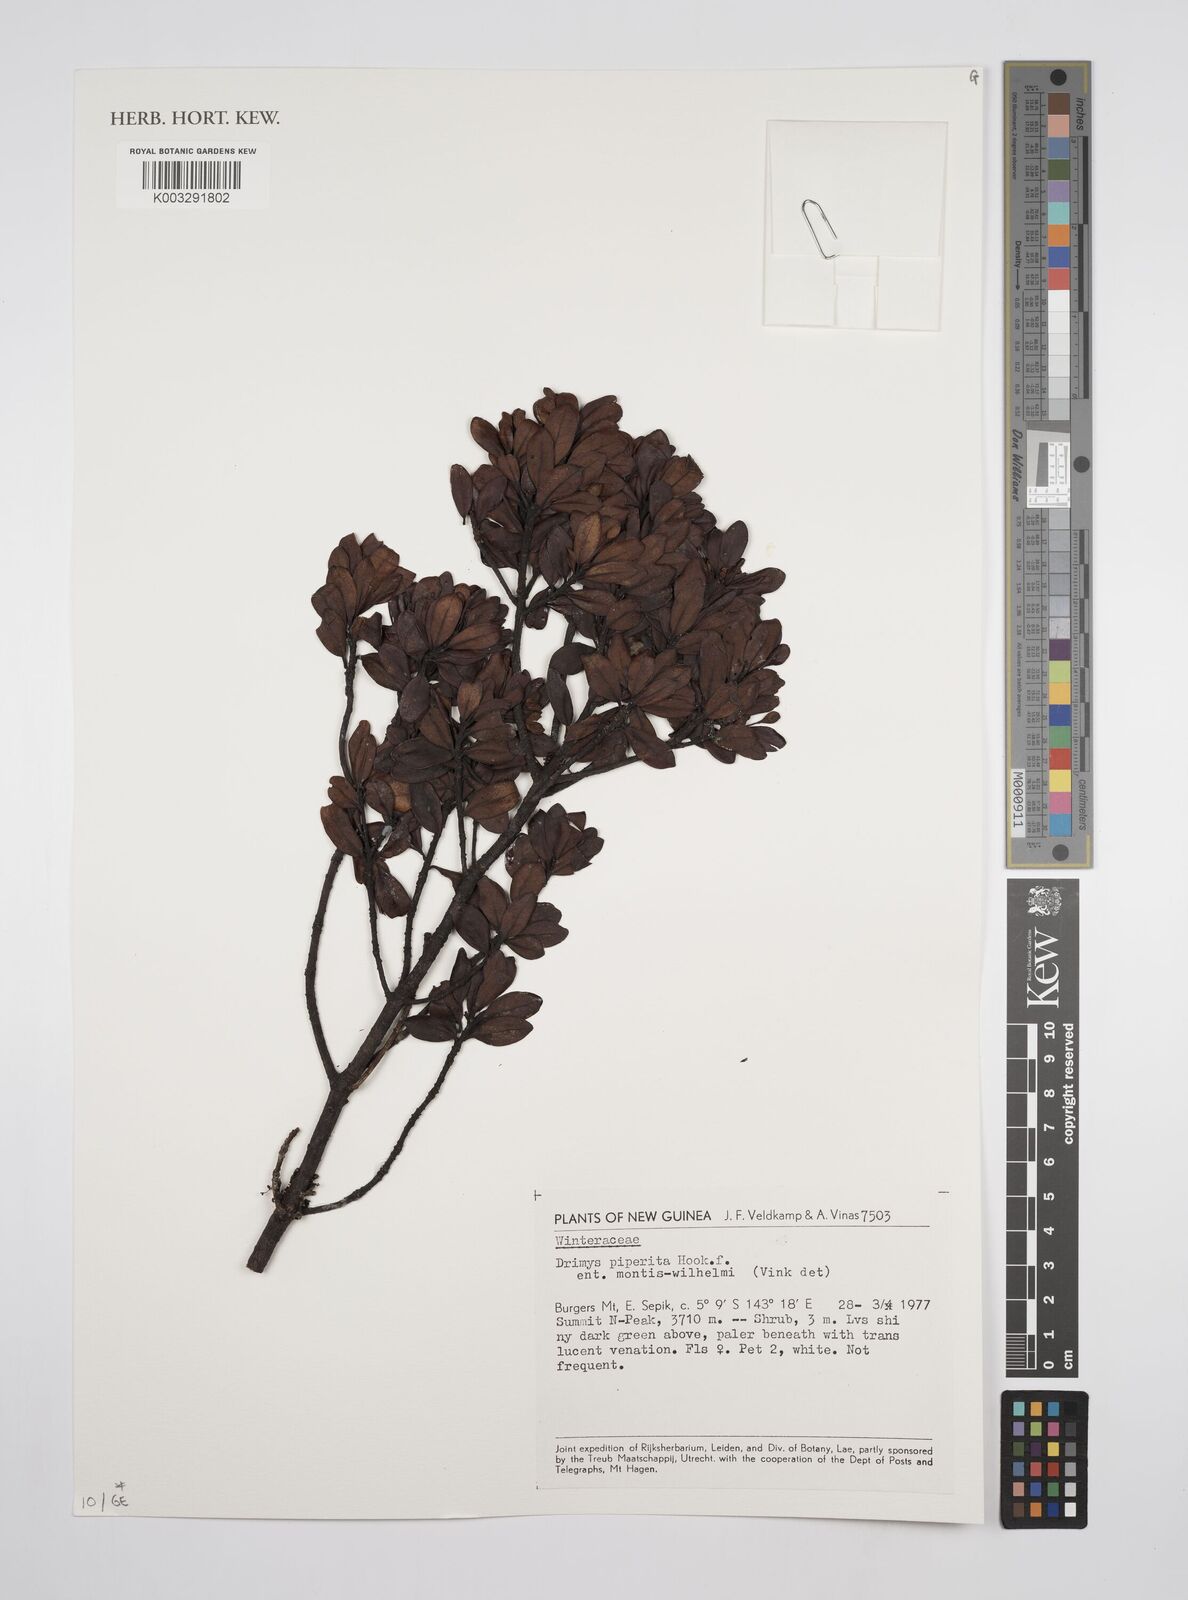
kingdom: Plantae
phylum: Tracheophyta
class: Magnoliopsida
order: Canellales
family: Winteraceae
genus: Drimys
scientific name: Drimys piperita
